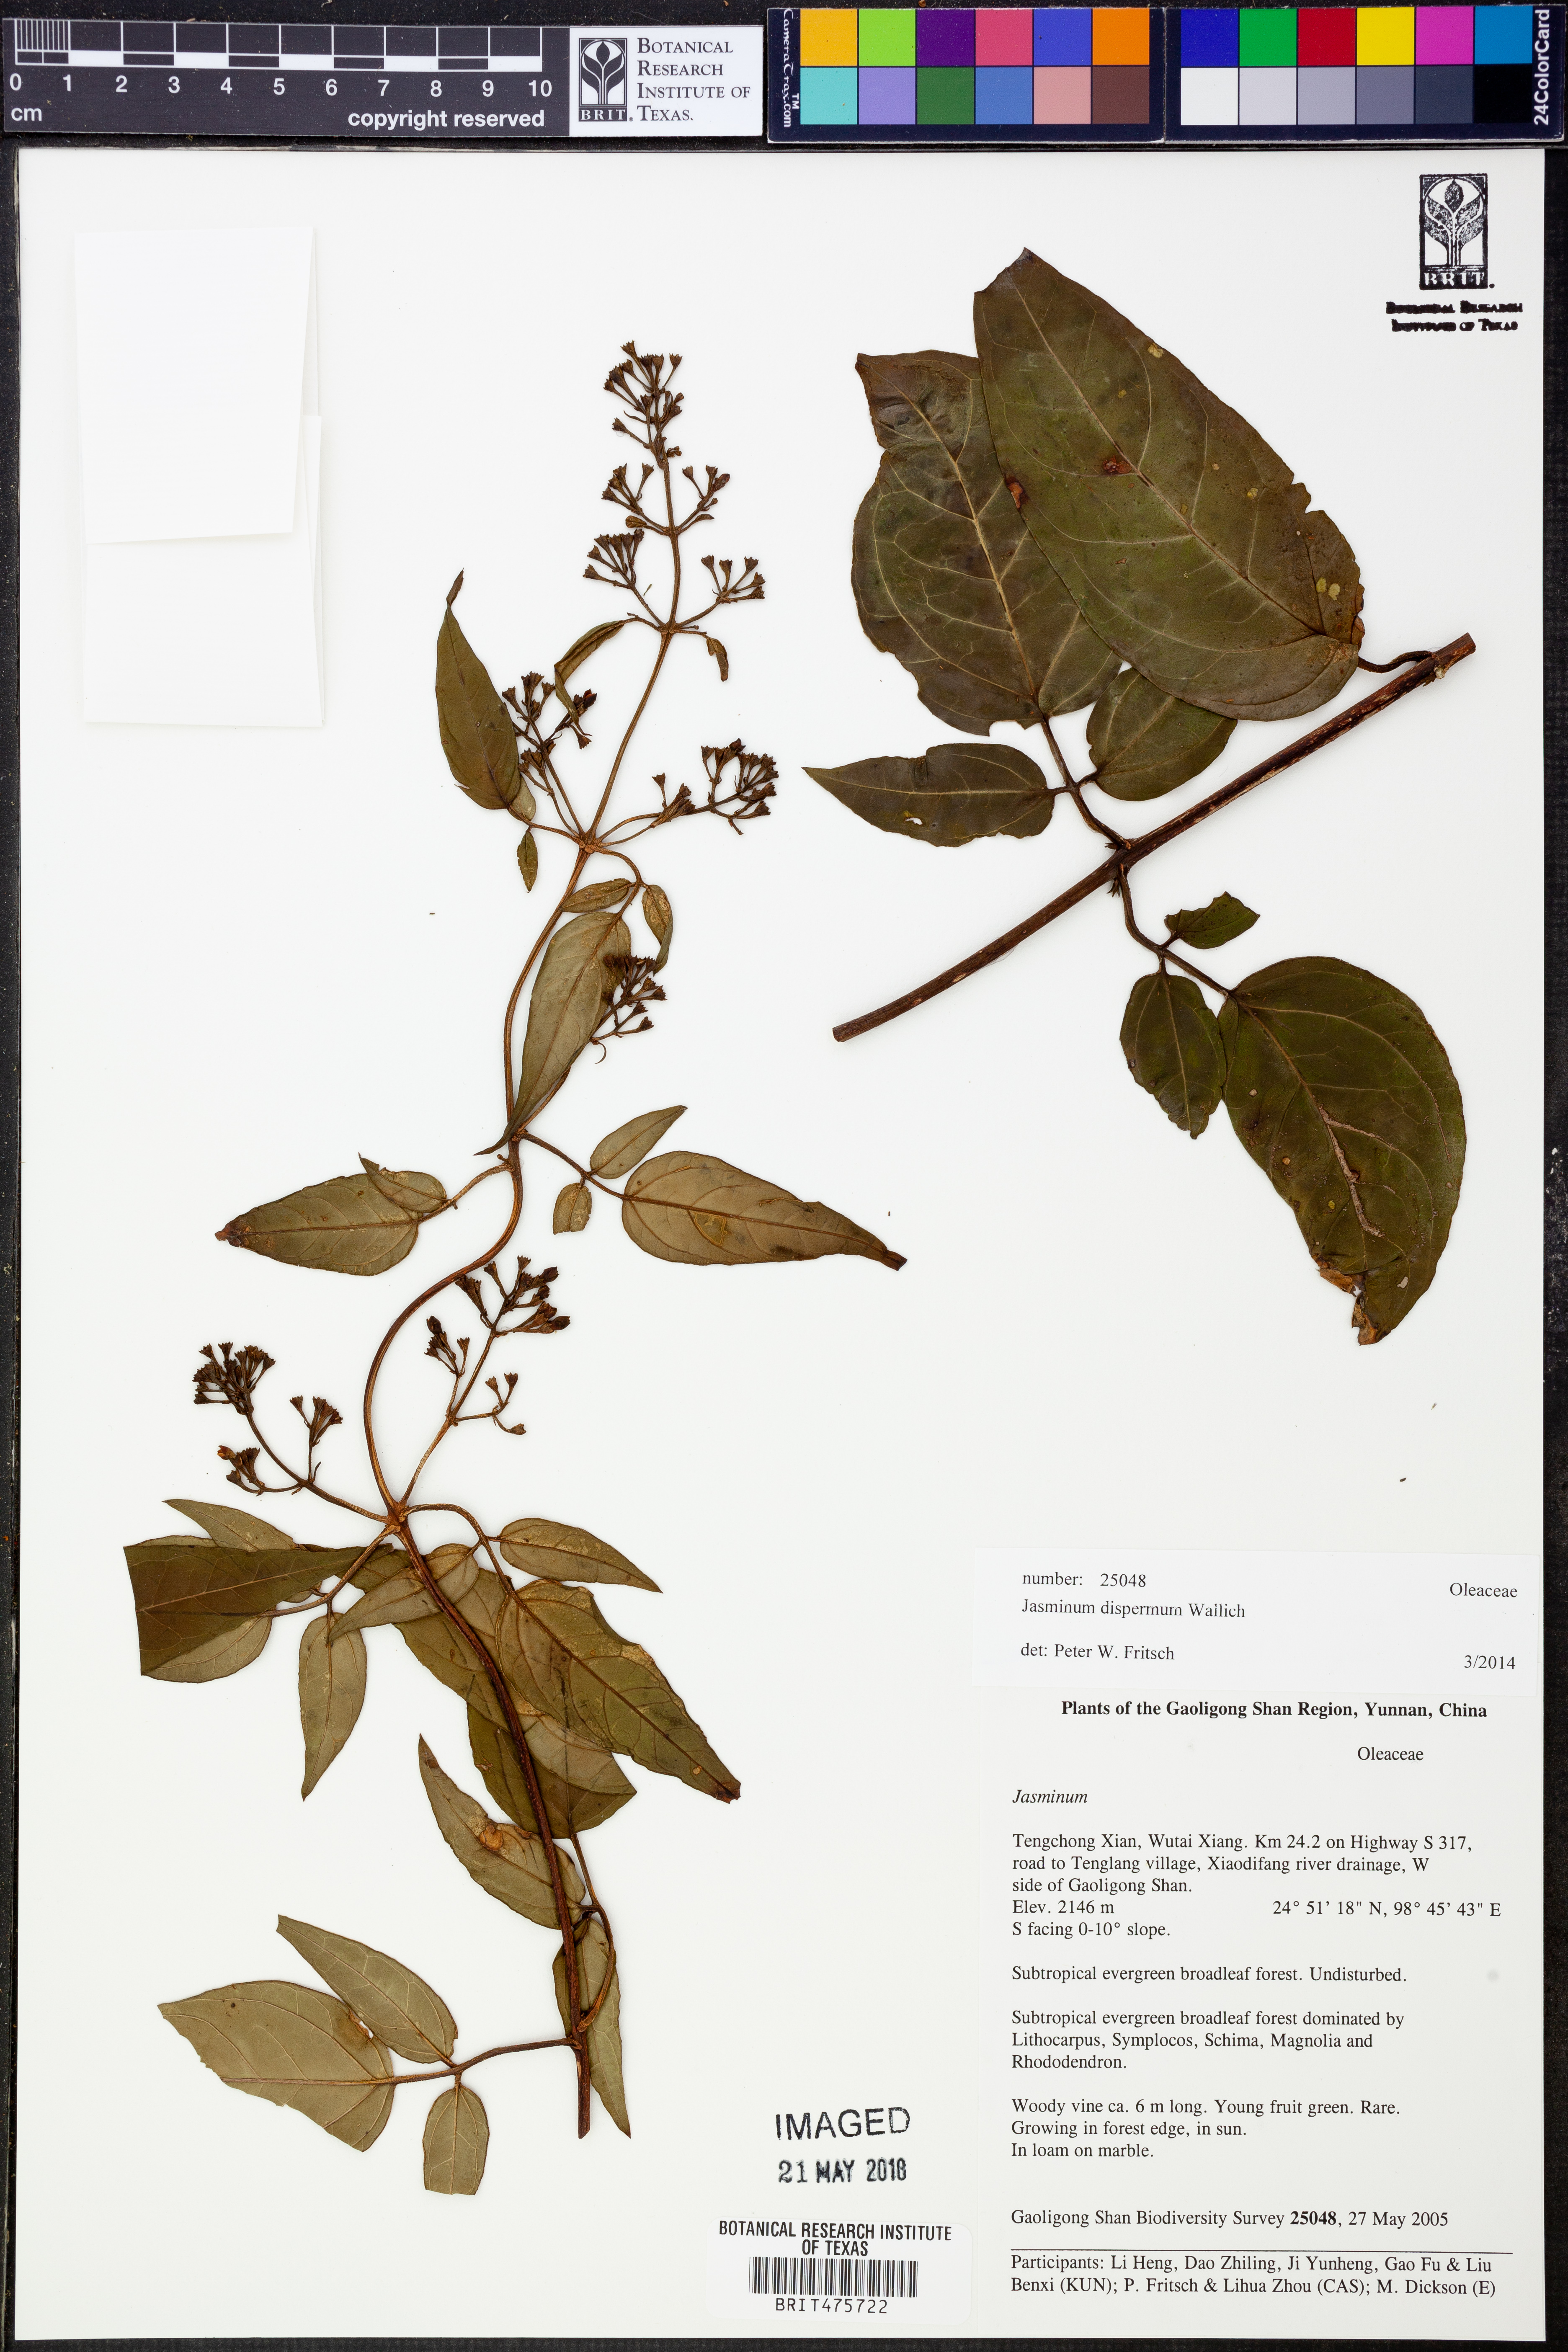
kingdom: Plantae
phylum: Tracheophyta
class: Magnoliopsida
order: Lamiales
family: Oleaceae
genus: Jasminum
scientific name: Jasminum dispermum
